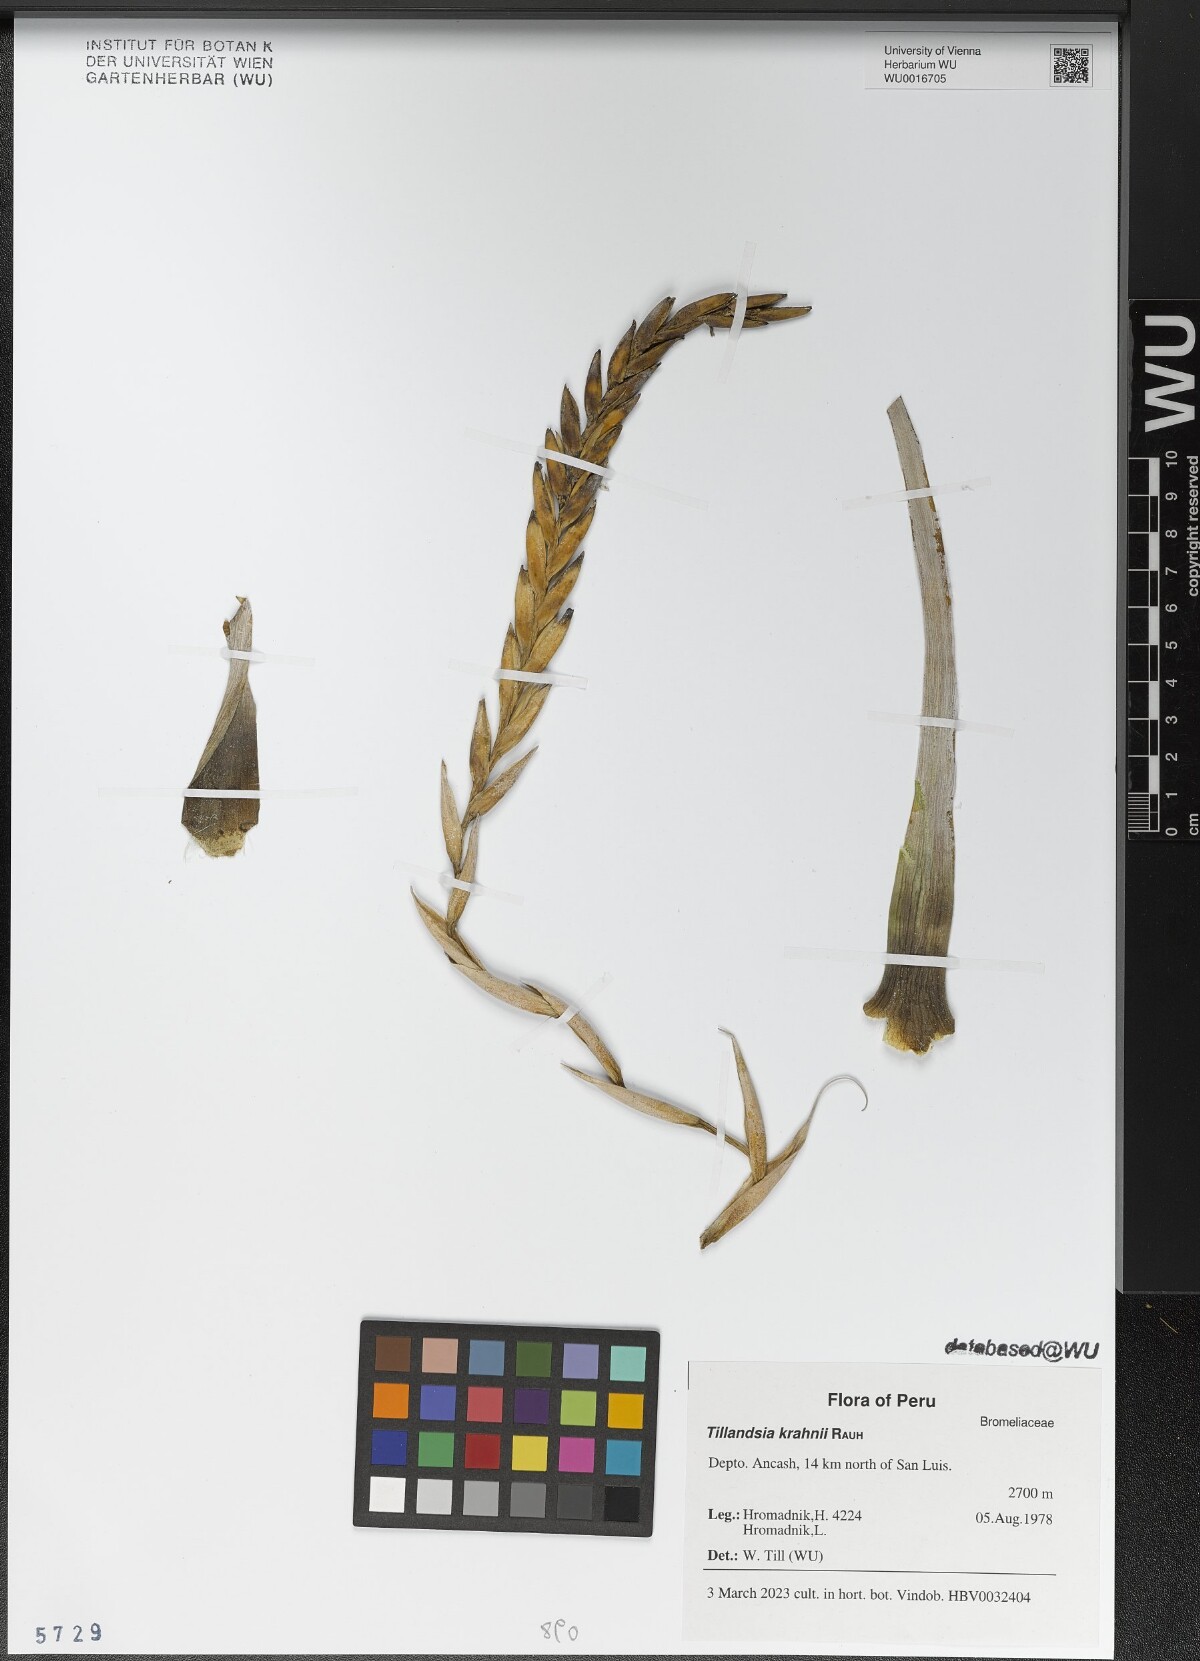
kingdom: Plantae
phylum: Tracheophyta
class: Liliopsida
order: Poales
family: Bromeliaceae
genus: Tillandsia
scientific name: Tillandsia krahnii
